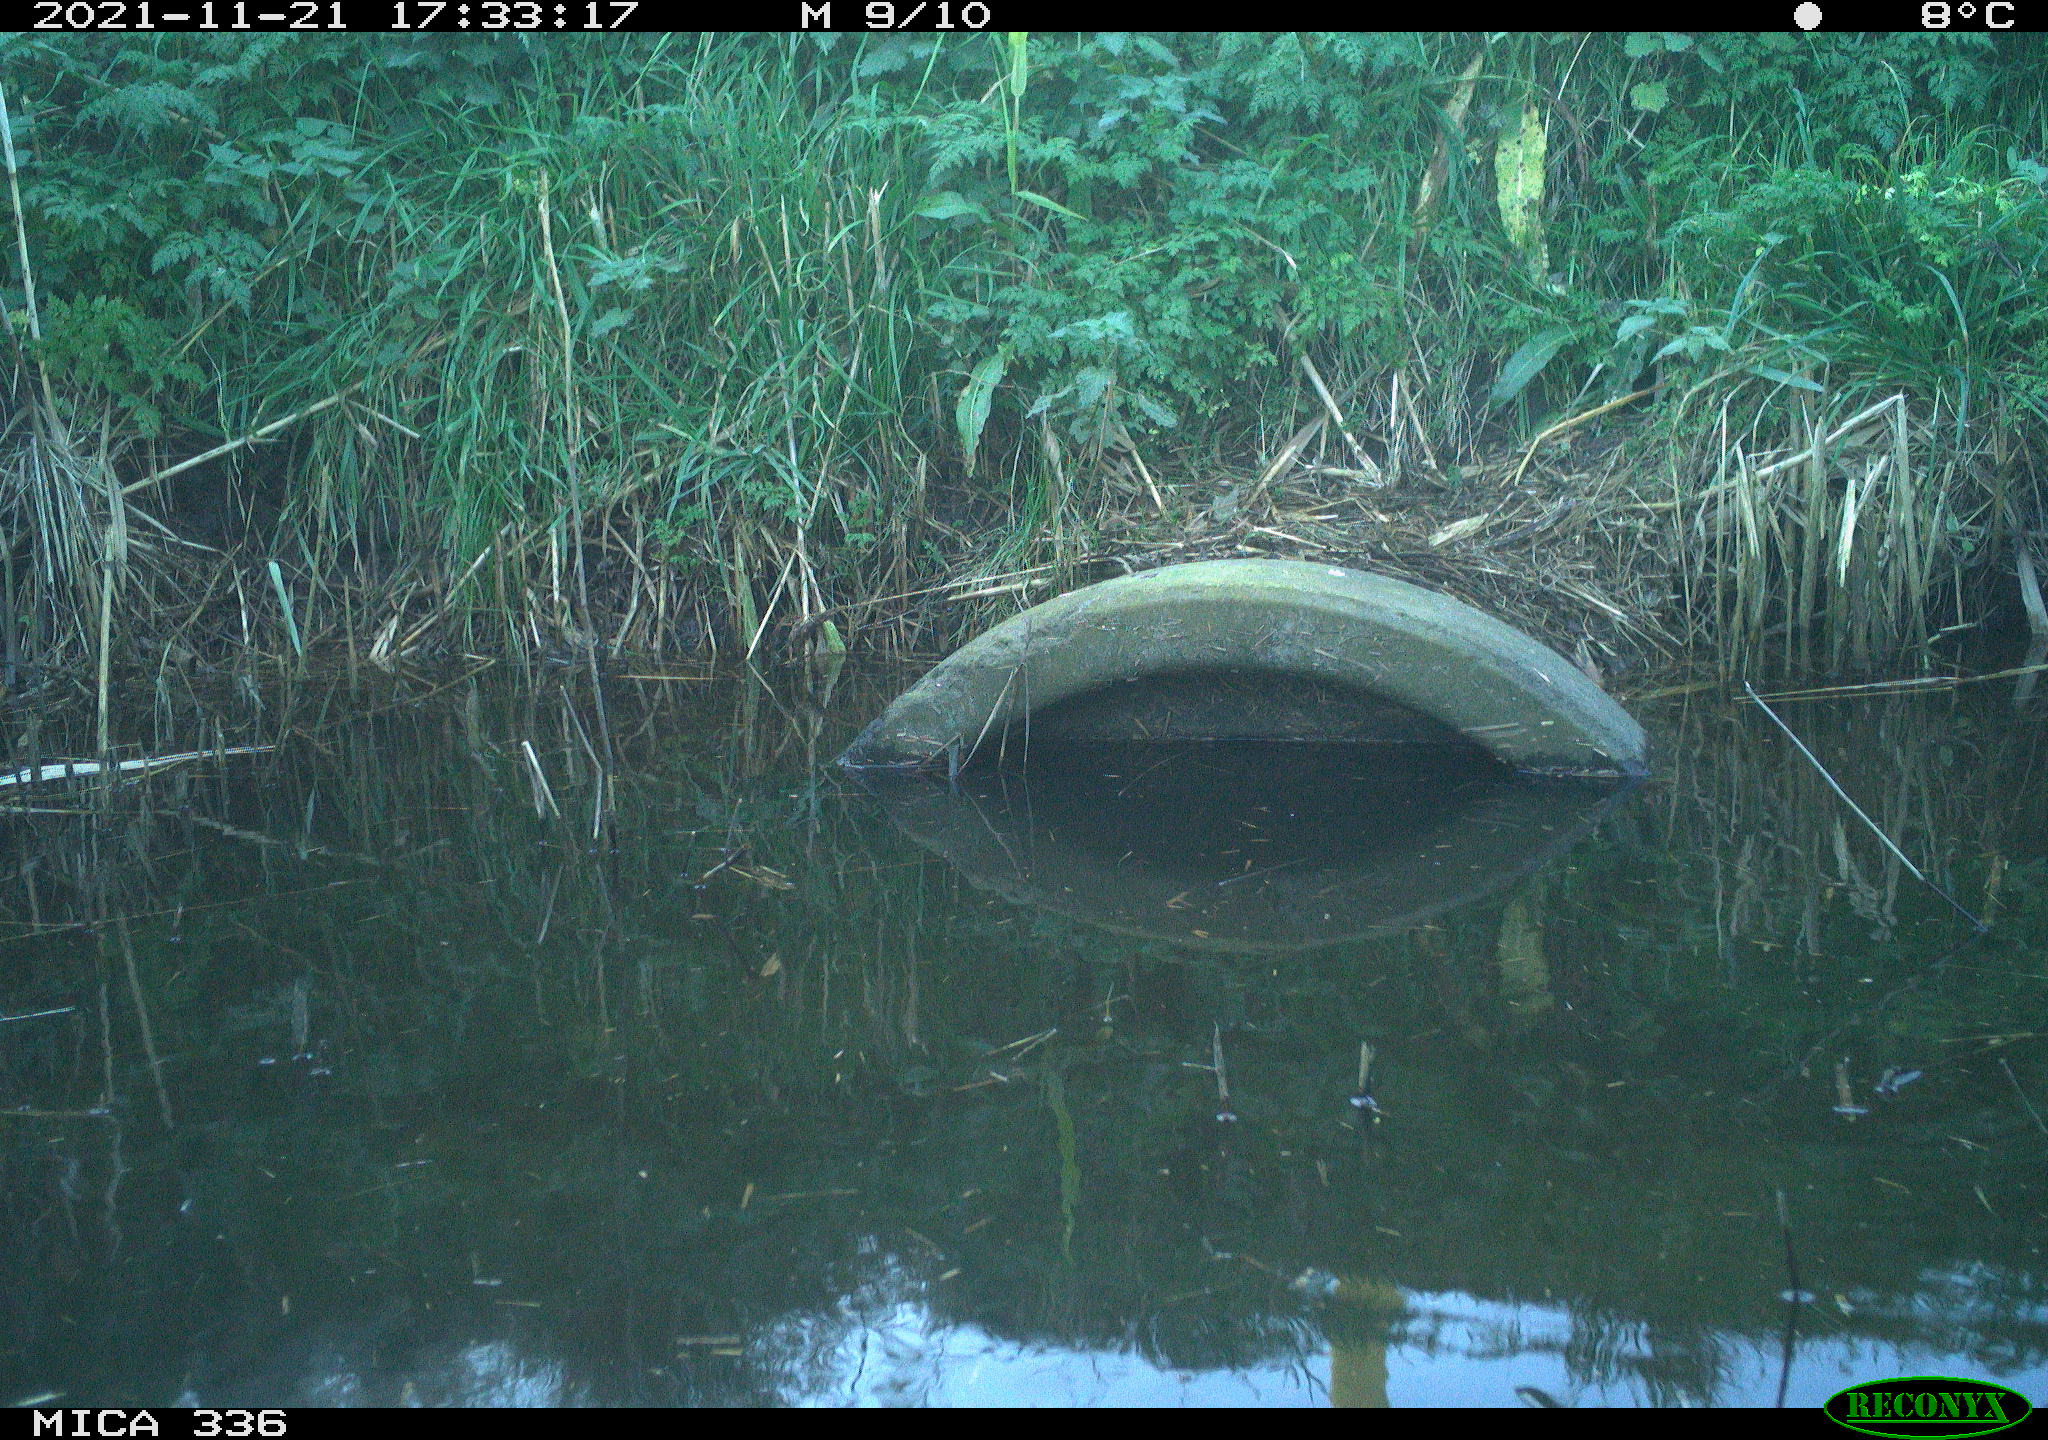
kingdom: Animalia
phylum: Chordata
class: Aves
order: Gruiformes
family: Rallidae
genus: Gallinula
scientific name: Gallinula chloropus
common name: Common moorhen
